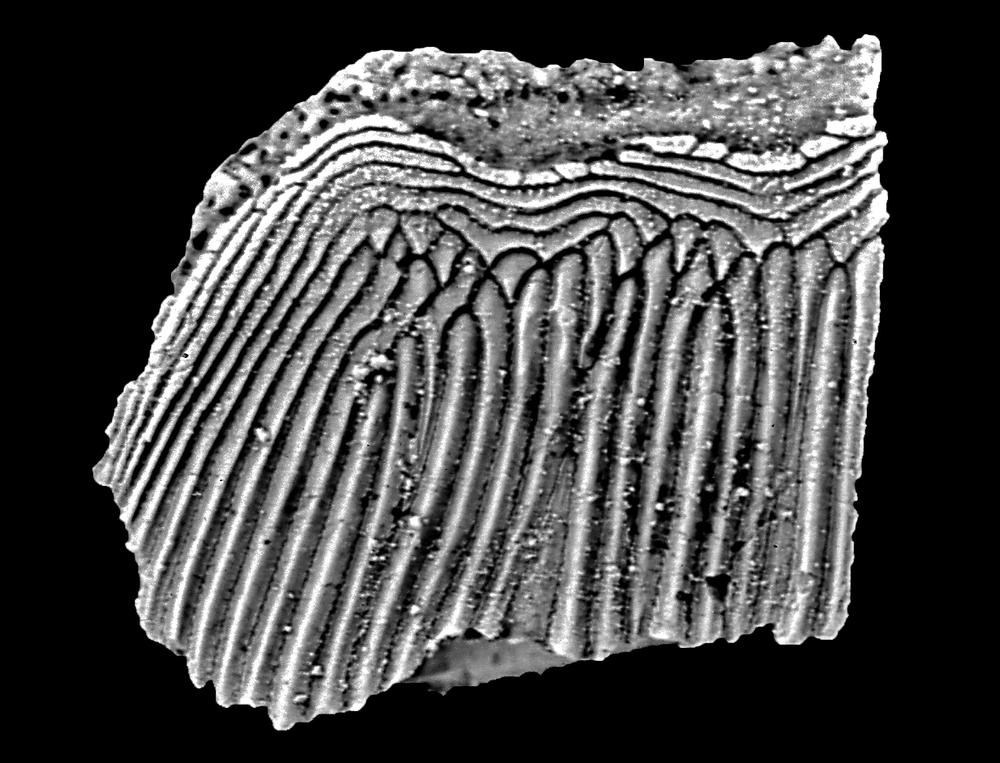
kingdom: Animalia
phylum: Chordata
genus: Archegonaspis
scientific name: Archegonaspis
